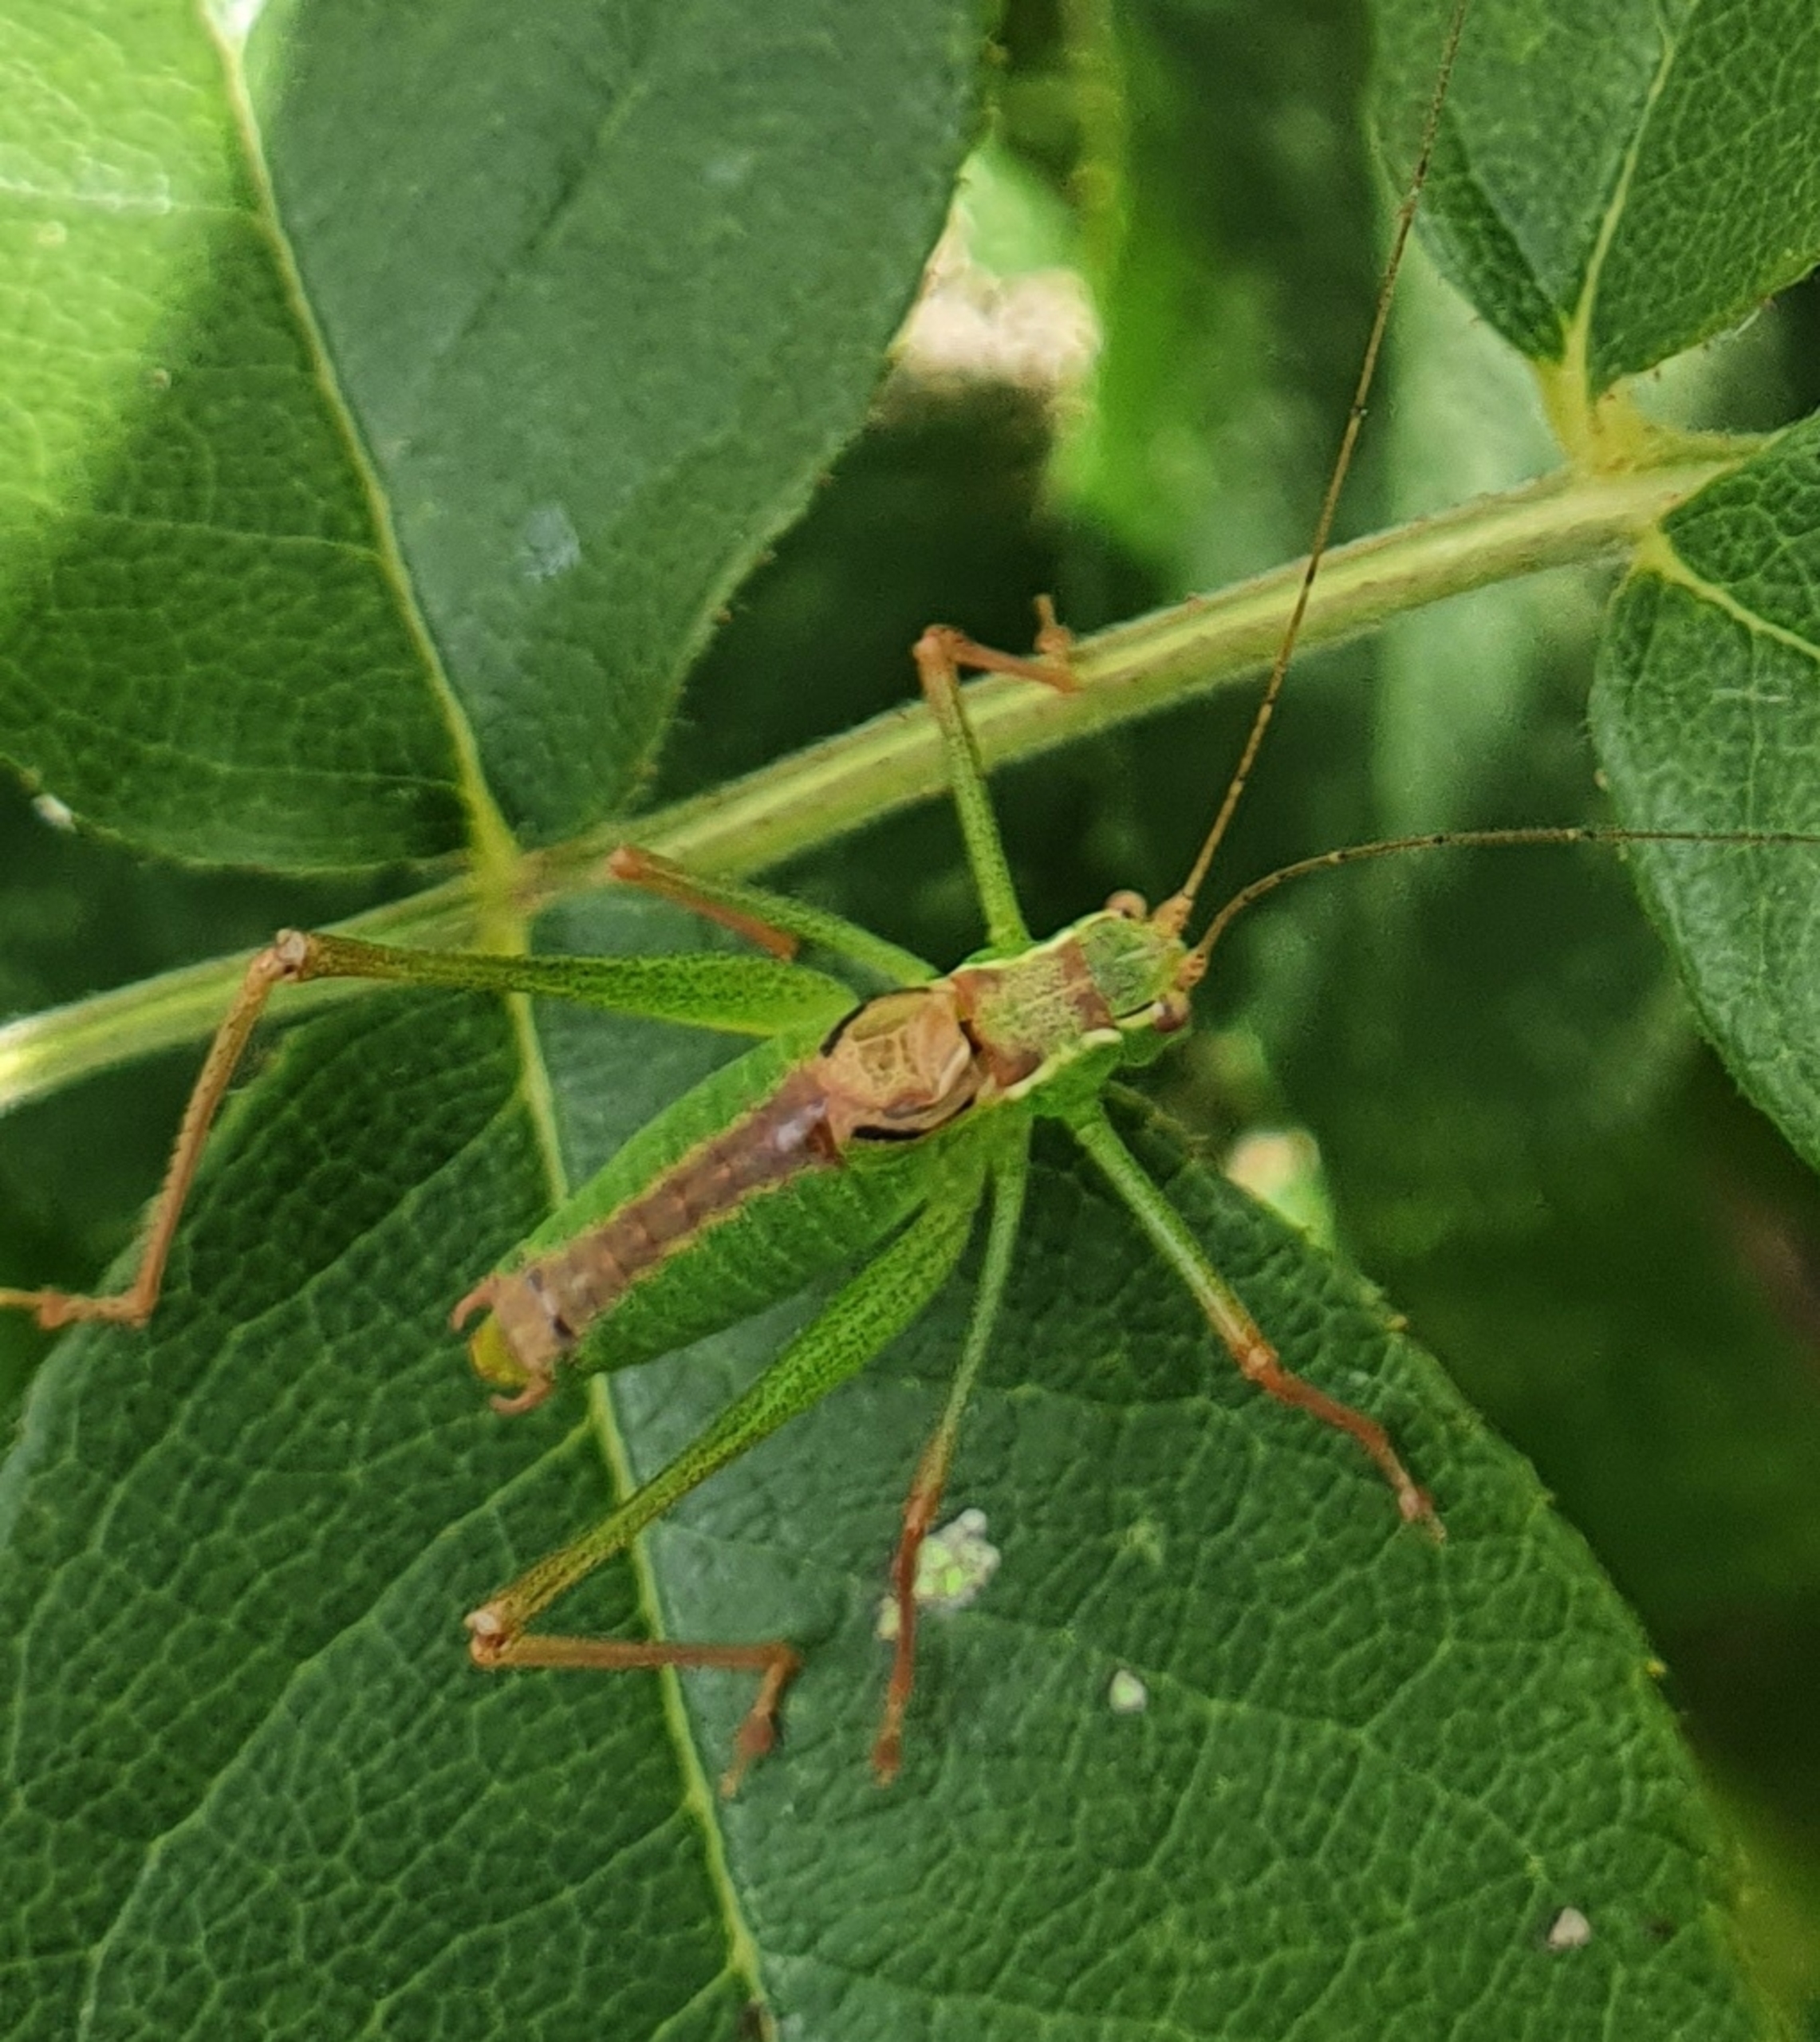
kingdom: Animalia
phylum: Arthropoda
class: Insecta
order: Orthoptera
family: Tettigoniidae
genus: Leptophyes
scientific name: Leptophyes punctatissima
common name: Krumknivgræshoppe
